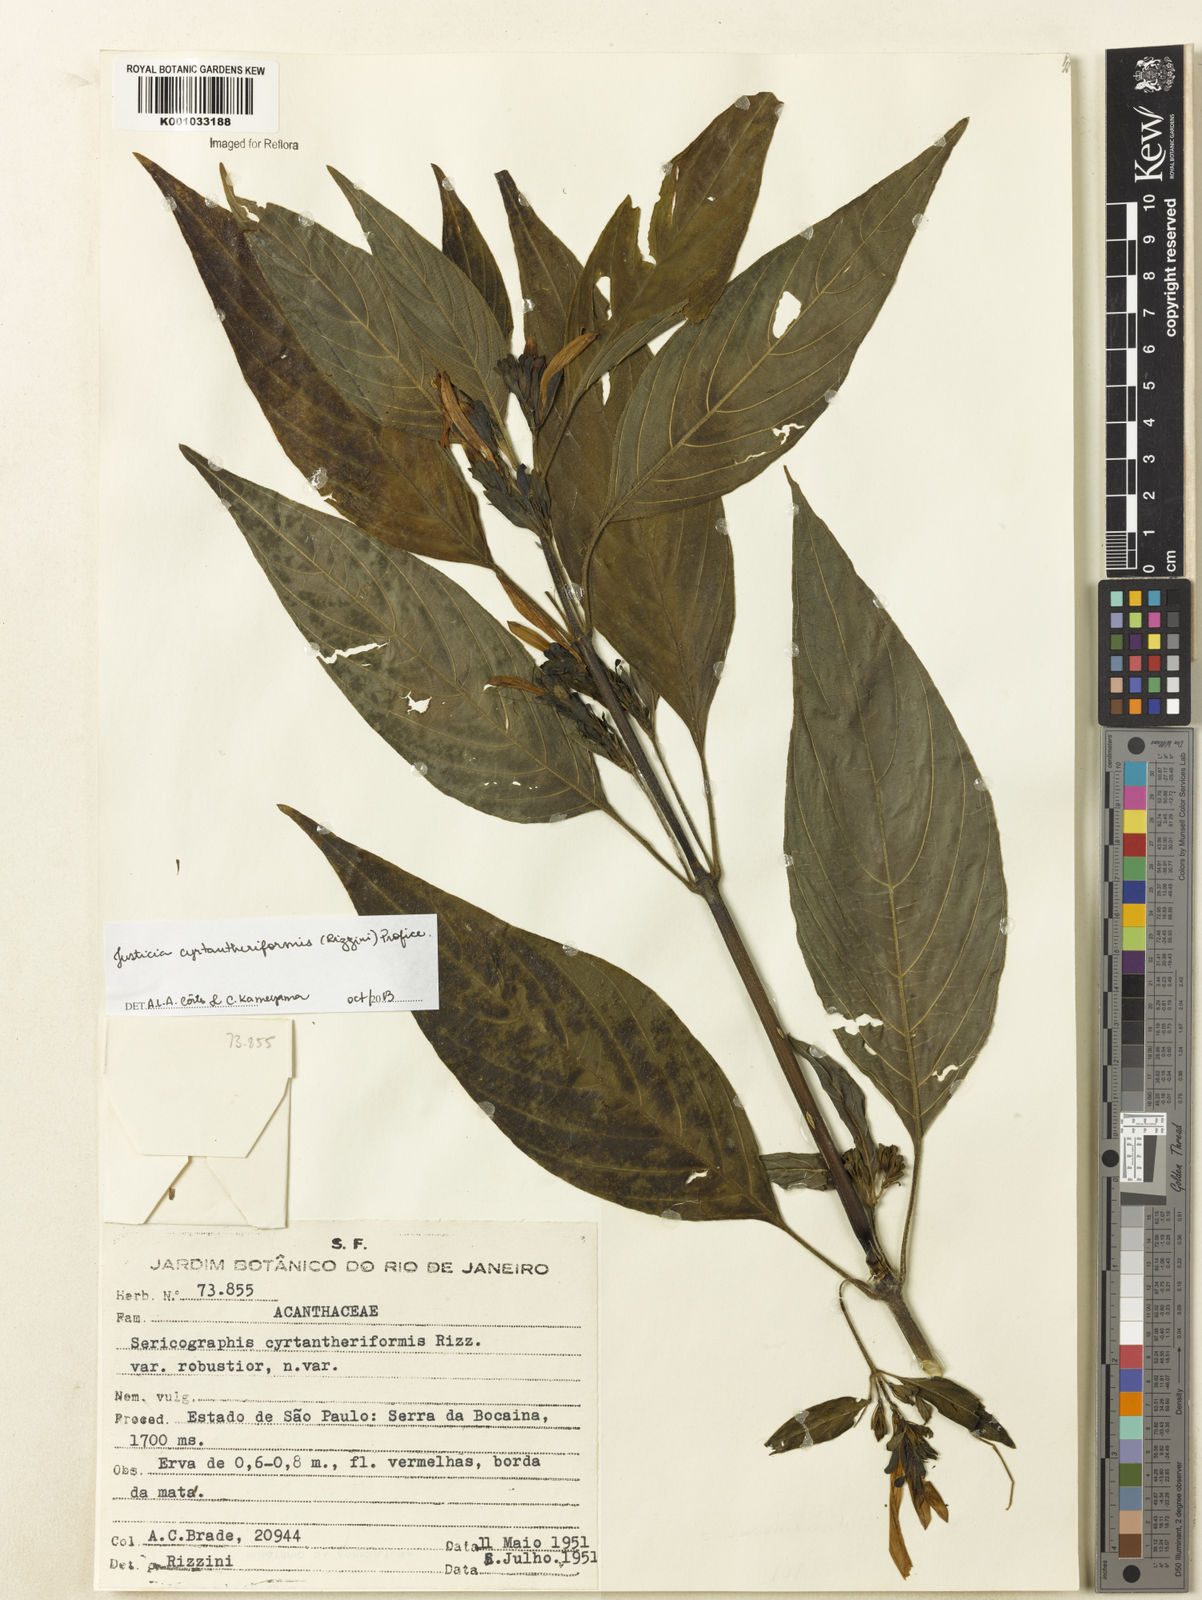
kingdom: Plantae
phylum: Tracheophyta
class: Magnoliopsida
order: Lamiales
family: Acanthaceae
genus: Justicia
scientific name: Justicia cyrtantheriformis
